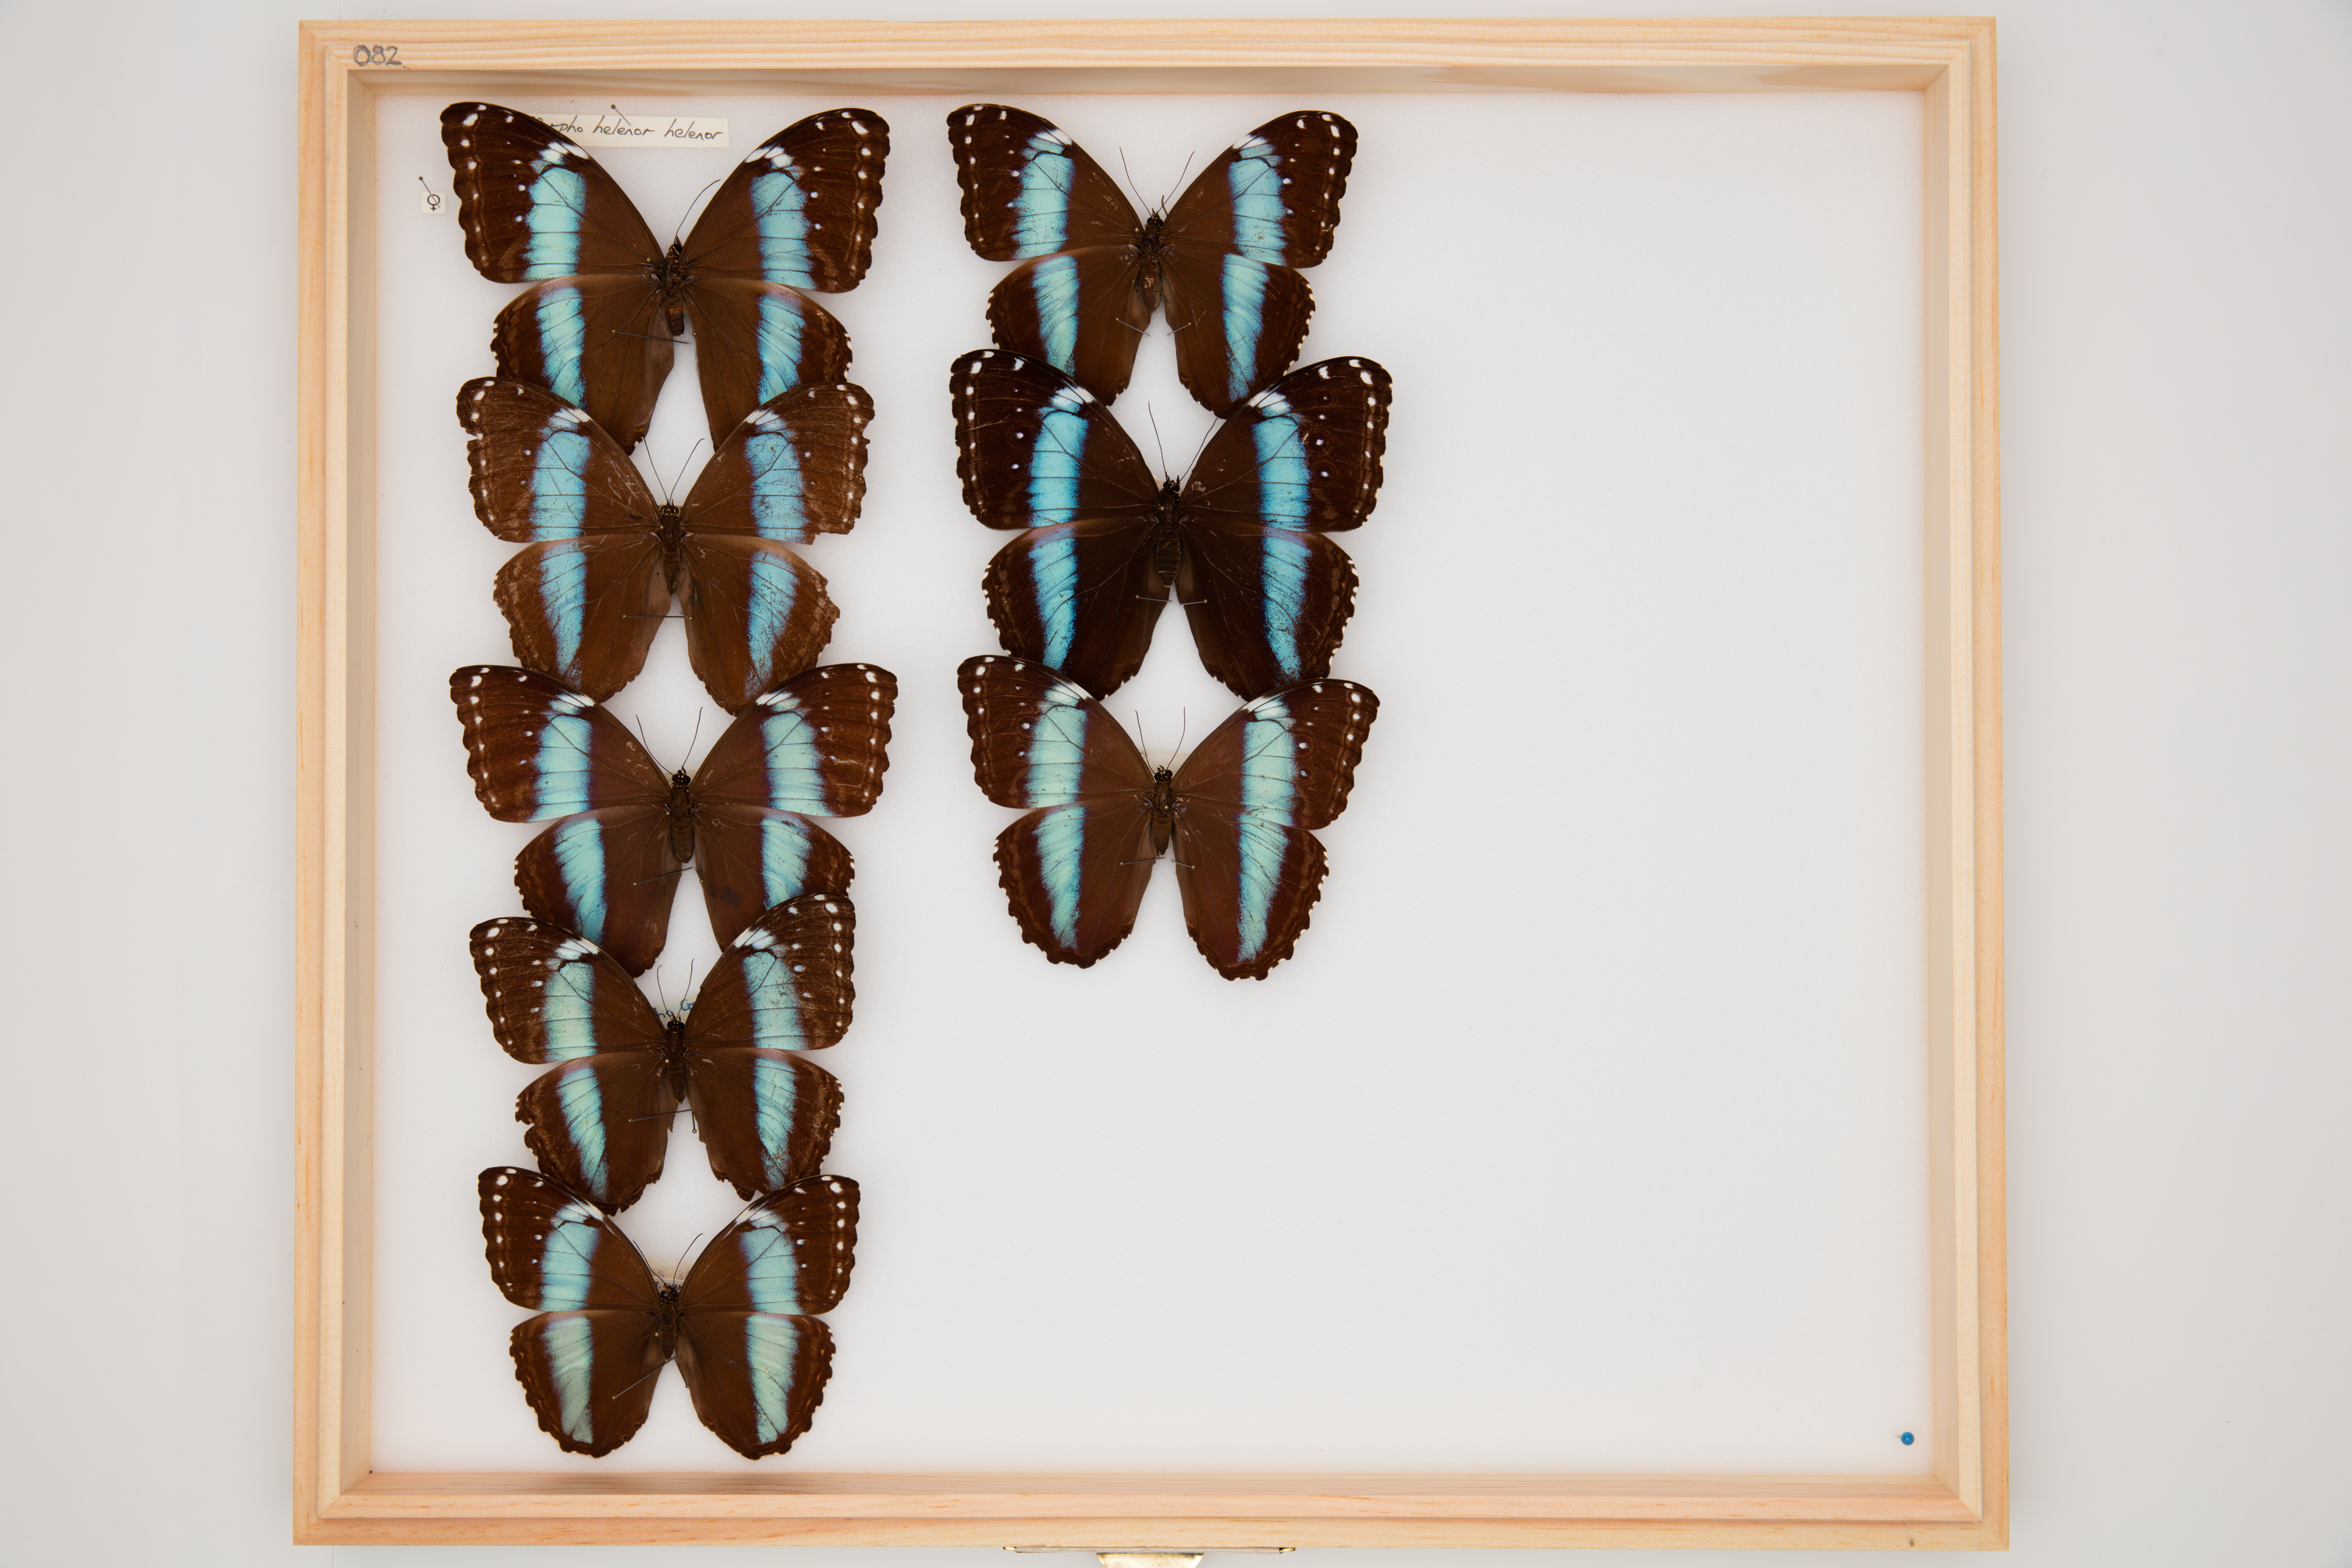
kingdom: Animalia
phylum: Arthropoda
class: Insecta
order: Lepidoptera
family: Nymphalidae
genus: Morpho
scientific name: Morpho helenor
